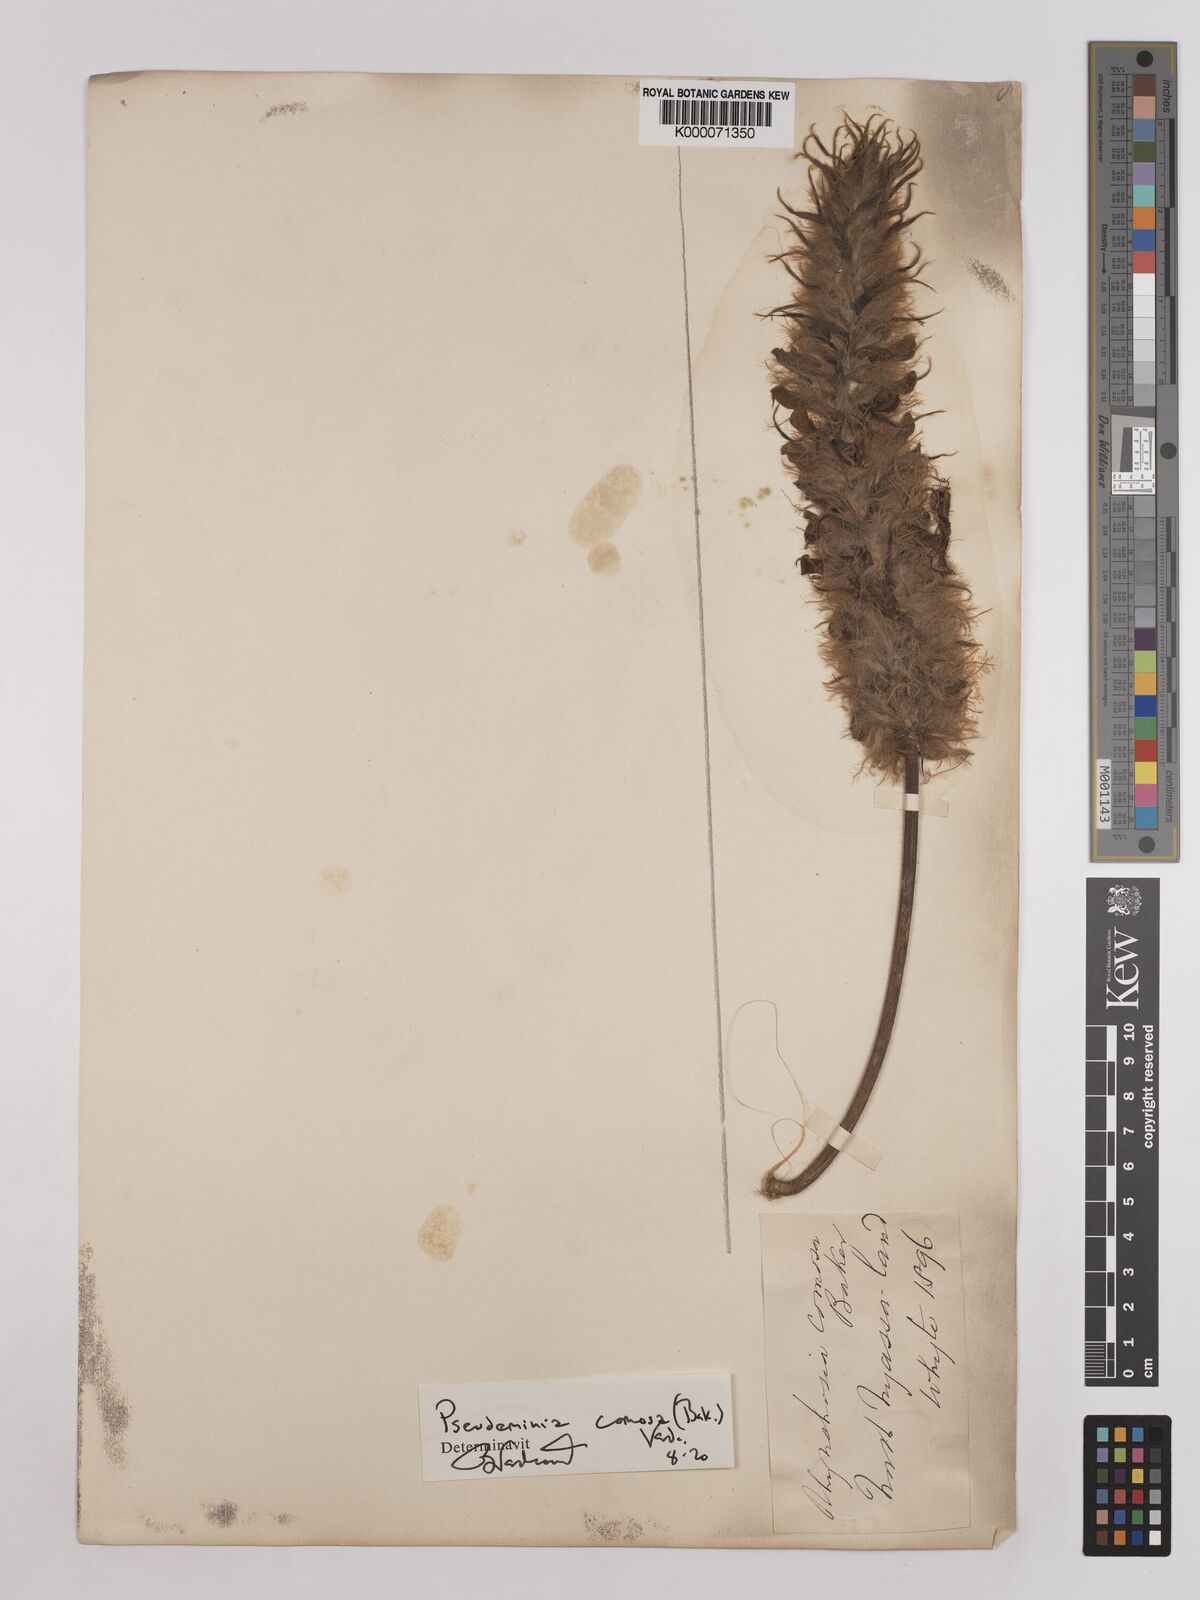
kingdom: Plantae
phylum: Tracheophyta
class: Magnoliopsida
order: Fabales
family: Fabaceae
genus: Pseudeminia
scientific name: Pseudeminia comosa
